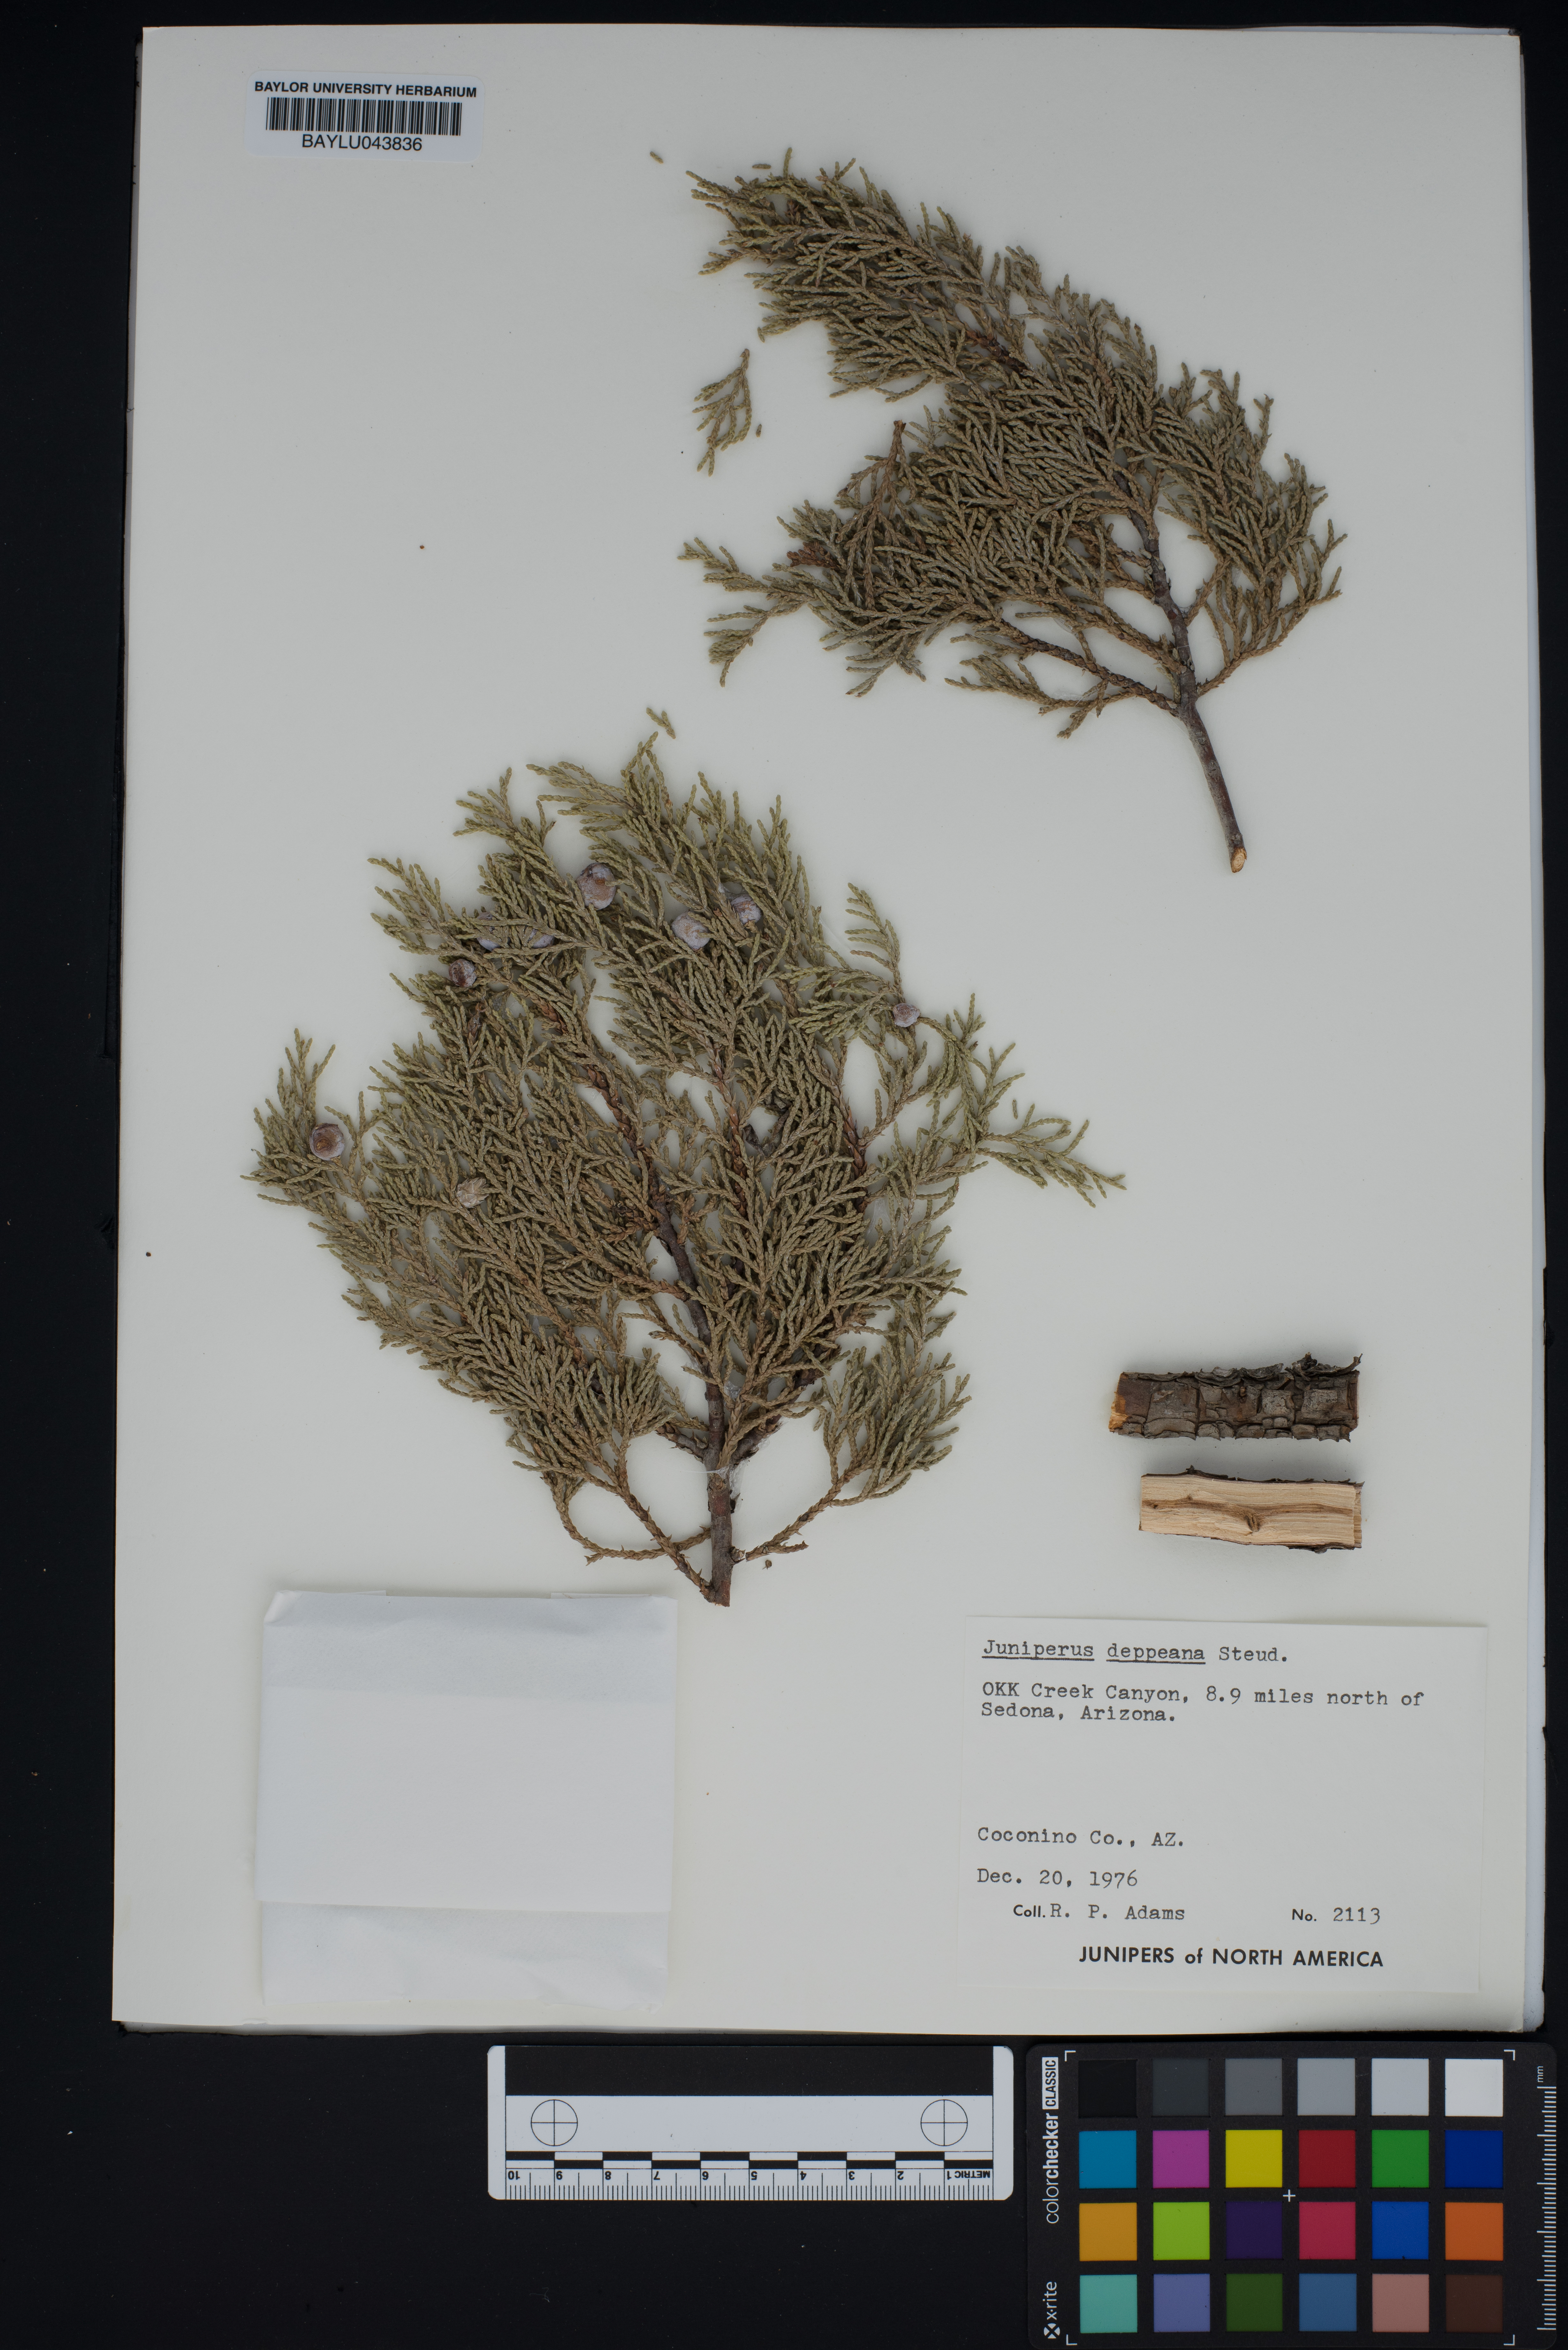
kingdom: Plantae
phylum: Tracheophyta
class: Pinopsida
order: Pinales
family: Cupressaceae
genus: Juniperus
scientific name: Juniperus deppeana
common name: Alligator juniper
